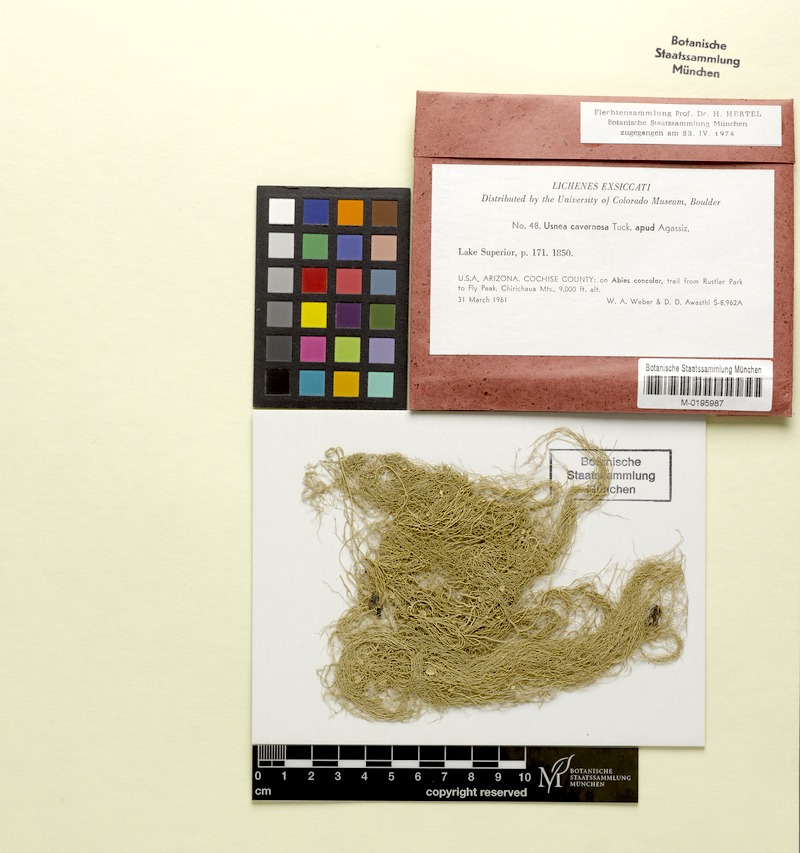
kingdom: Fungi
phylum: Ascomycota
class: Lecanoromycetes
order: Lecanorales
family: Parmeliaceae
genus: Usnea
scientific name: Usnea cavernosa
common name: Pitted beard lichen
